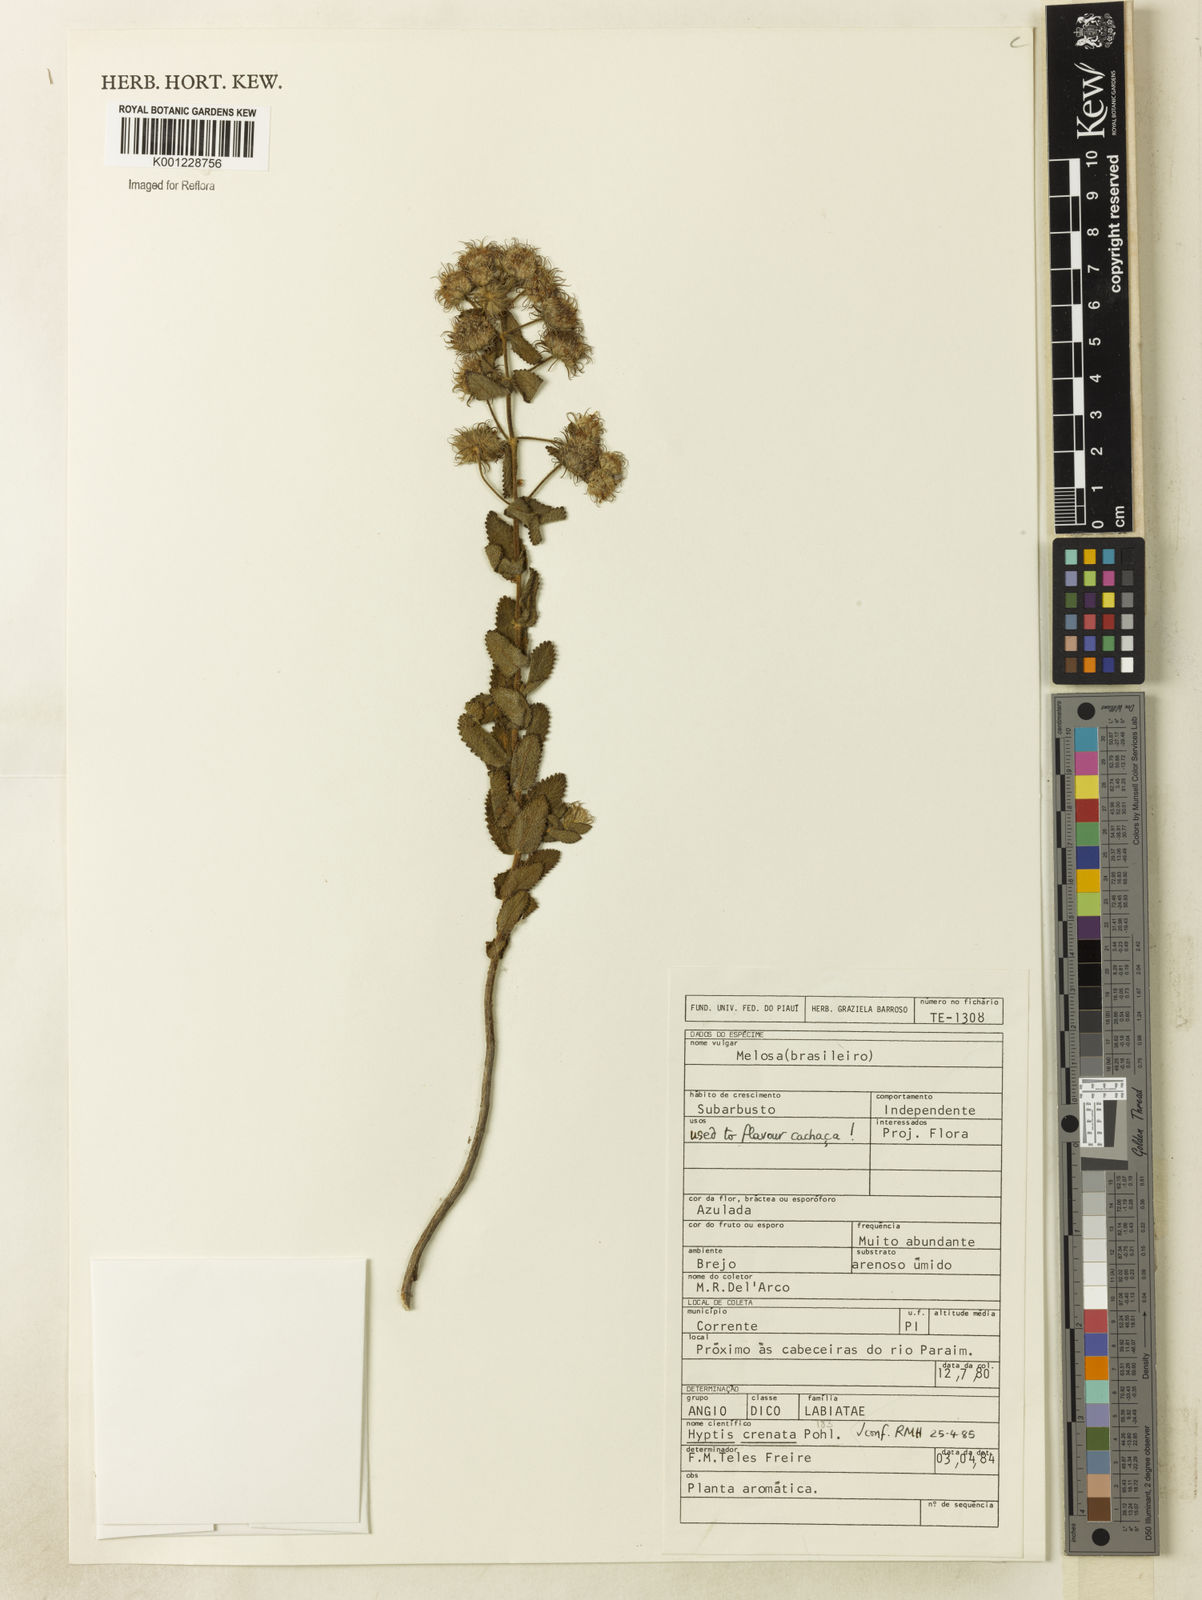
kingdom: Plantae
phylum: Tracheophyta
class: Magnoliopsida
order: Lamiales
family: Lamiaceae
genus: Hyptis
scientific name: Hyptis crenata
